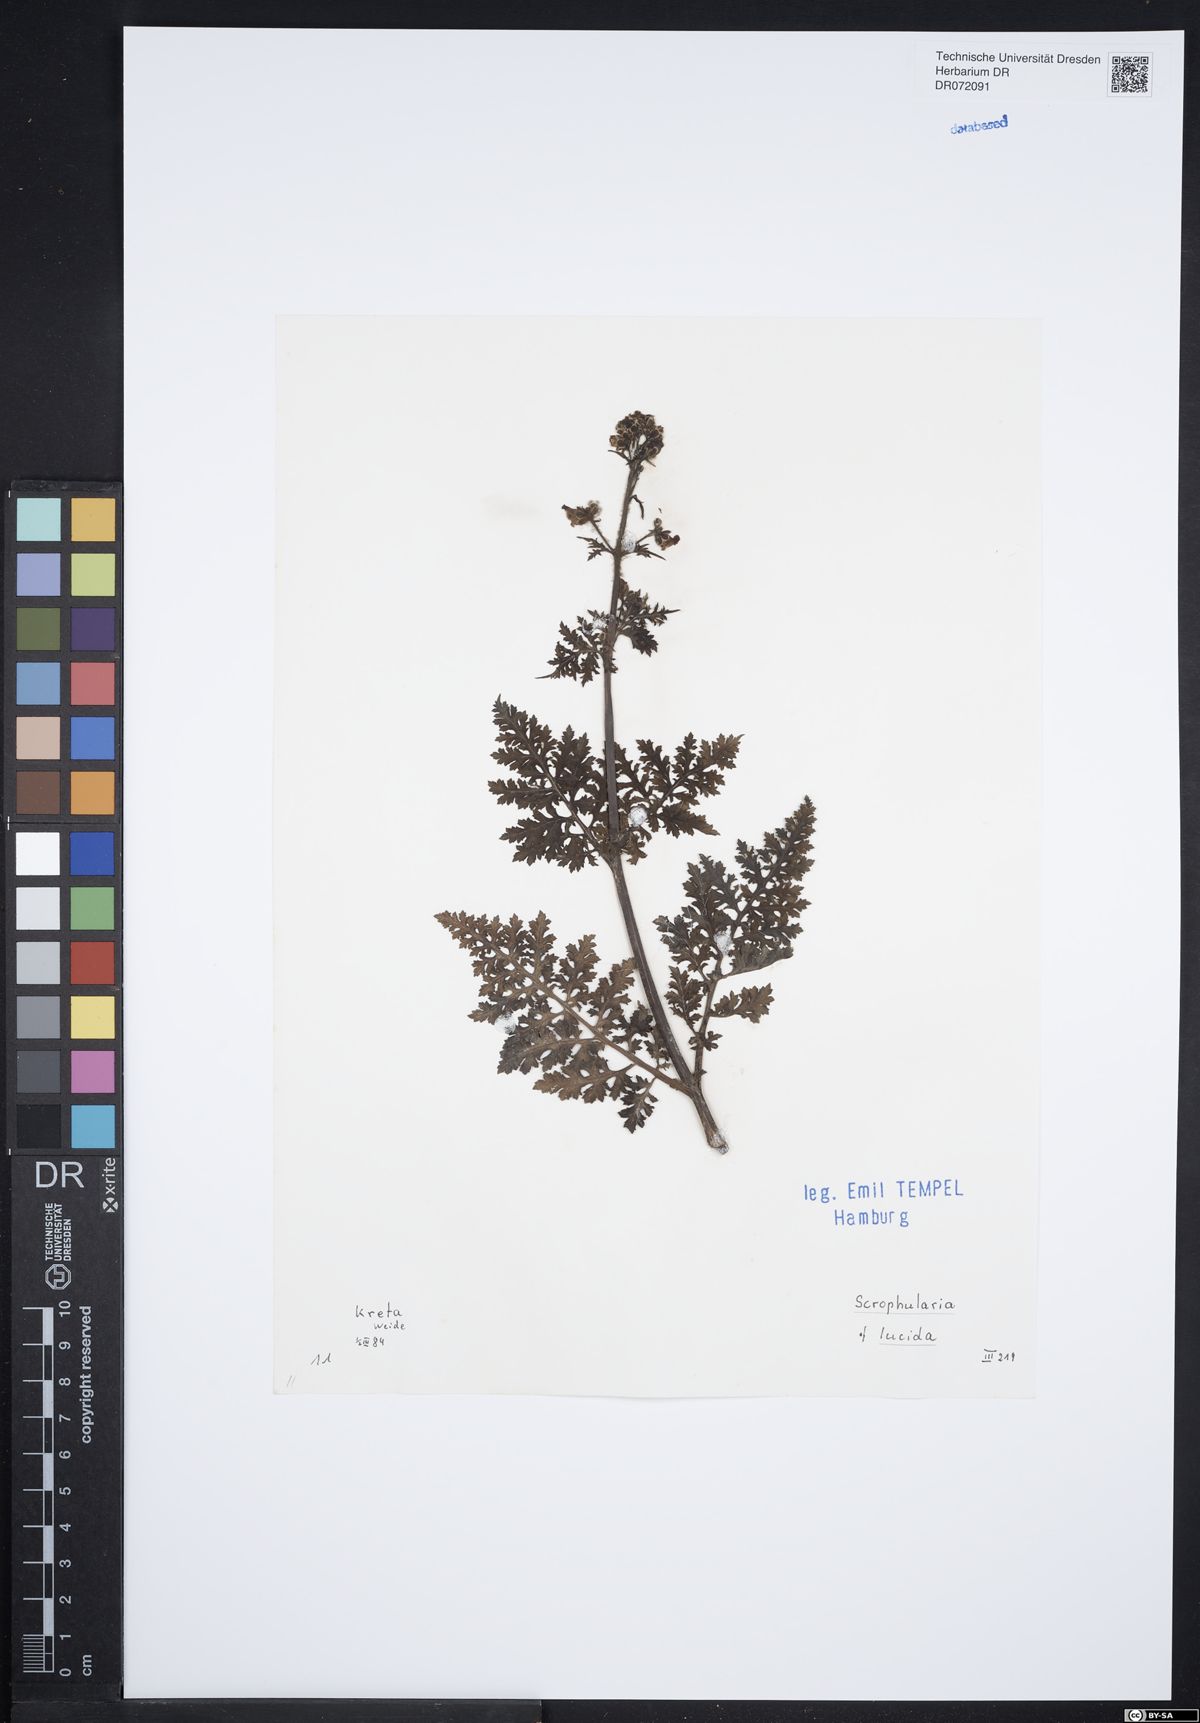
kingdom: Plantae
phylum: Tracheophyta
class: Magnoliopsida
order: Lamiales
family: Scrophulariaceae
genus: Scrophularia
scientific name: Scrophularia lucida
